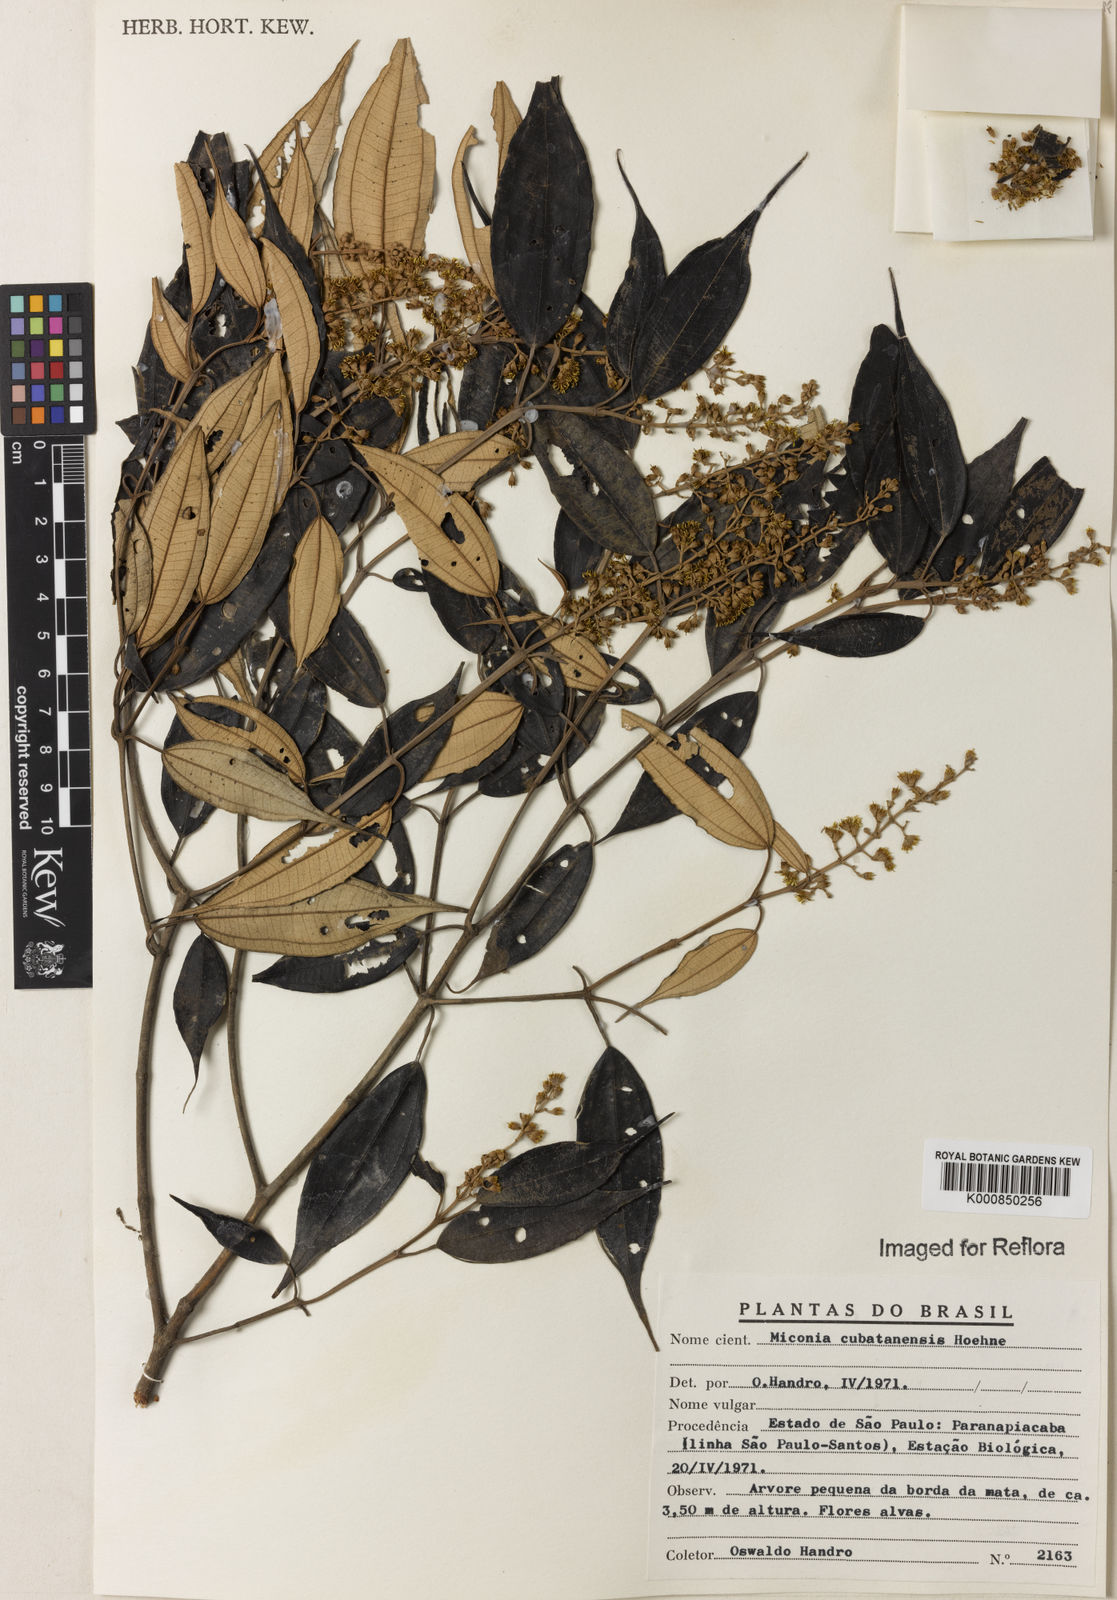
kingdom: Plantae
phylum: Tracheophyta
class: Magnoliopsida
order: Myrtales
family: Melastomataceae
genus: Miconia
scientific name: Miconia cubatanensis
